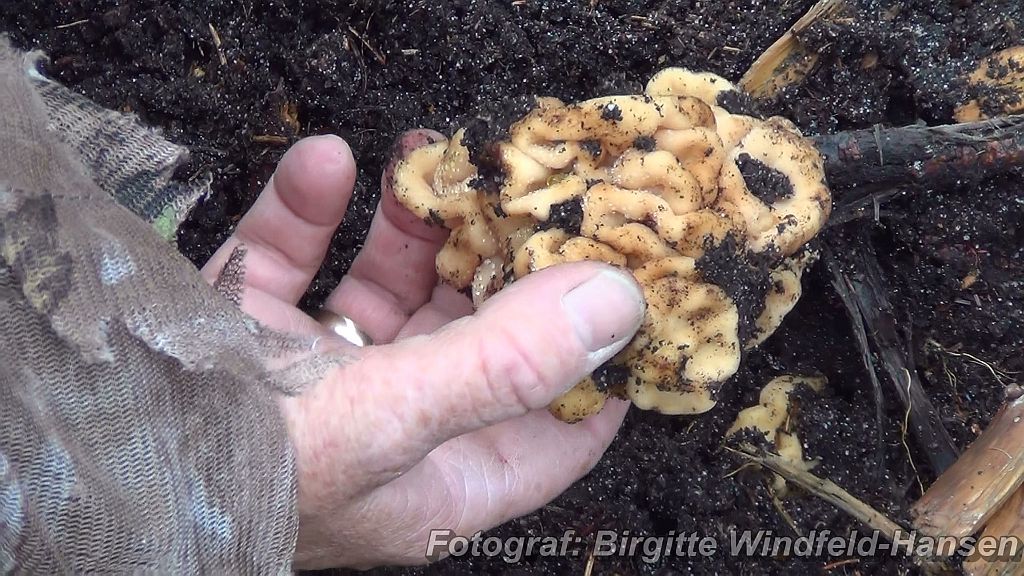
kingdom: Fungi
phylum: Ascomycota
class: Pezizomycetes
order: Pezizales
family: Discinaceae
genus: Hydnotrya
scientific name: Hydnotrya cubispora
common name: kassesporet foldtrøffel
